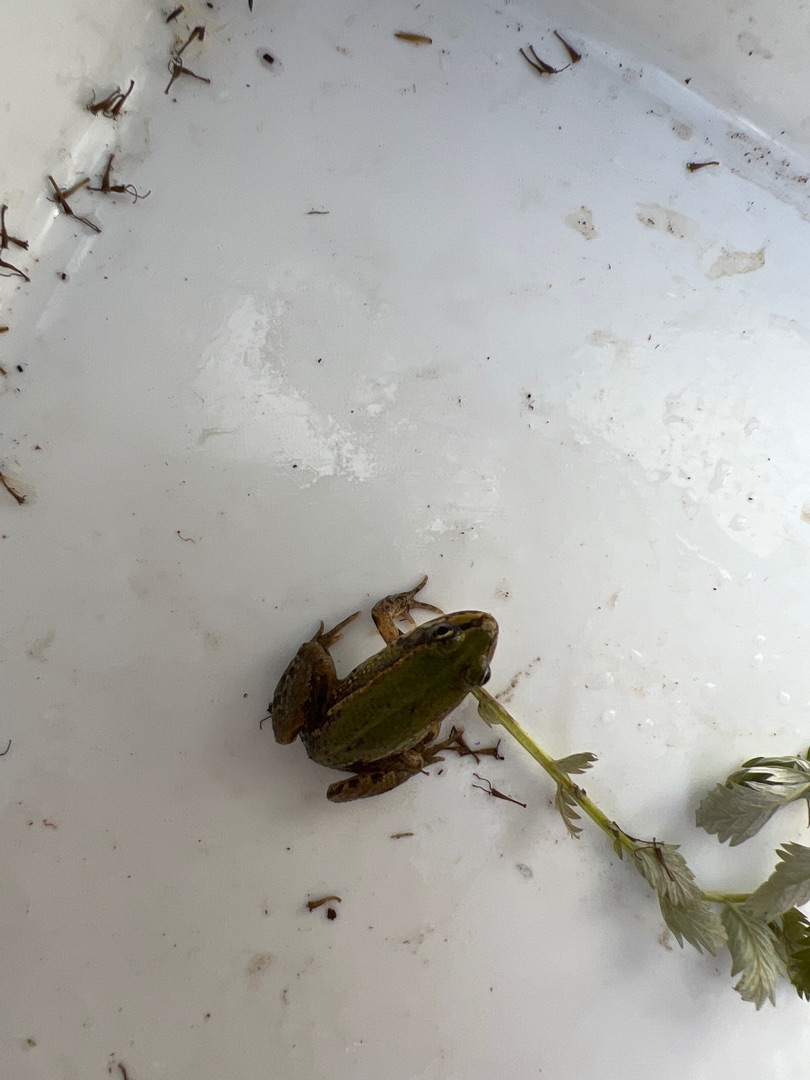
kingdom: Animalia
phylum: Chordata
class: Amphibia
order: Anura
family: Ranidae
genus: Pelophylax
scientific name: Pelophylax lessonae
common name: Grøn frø
